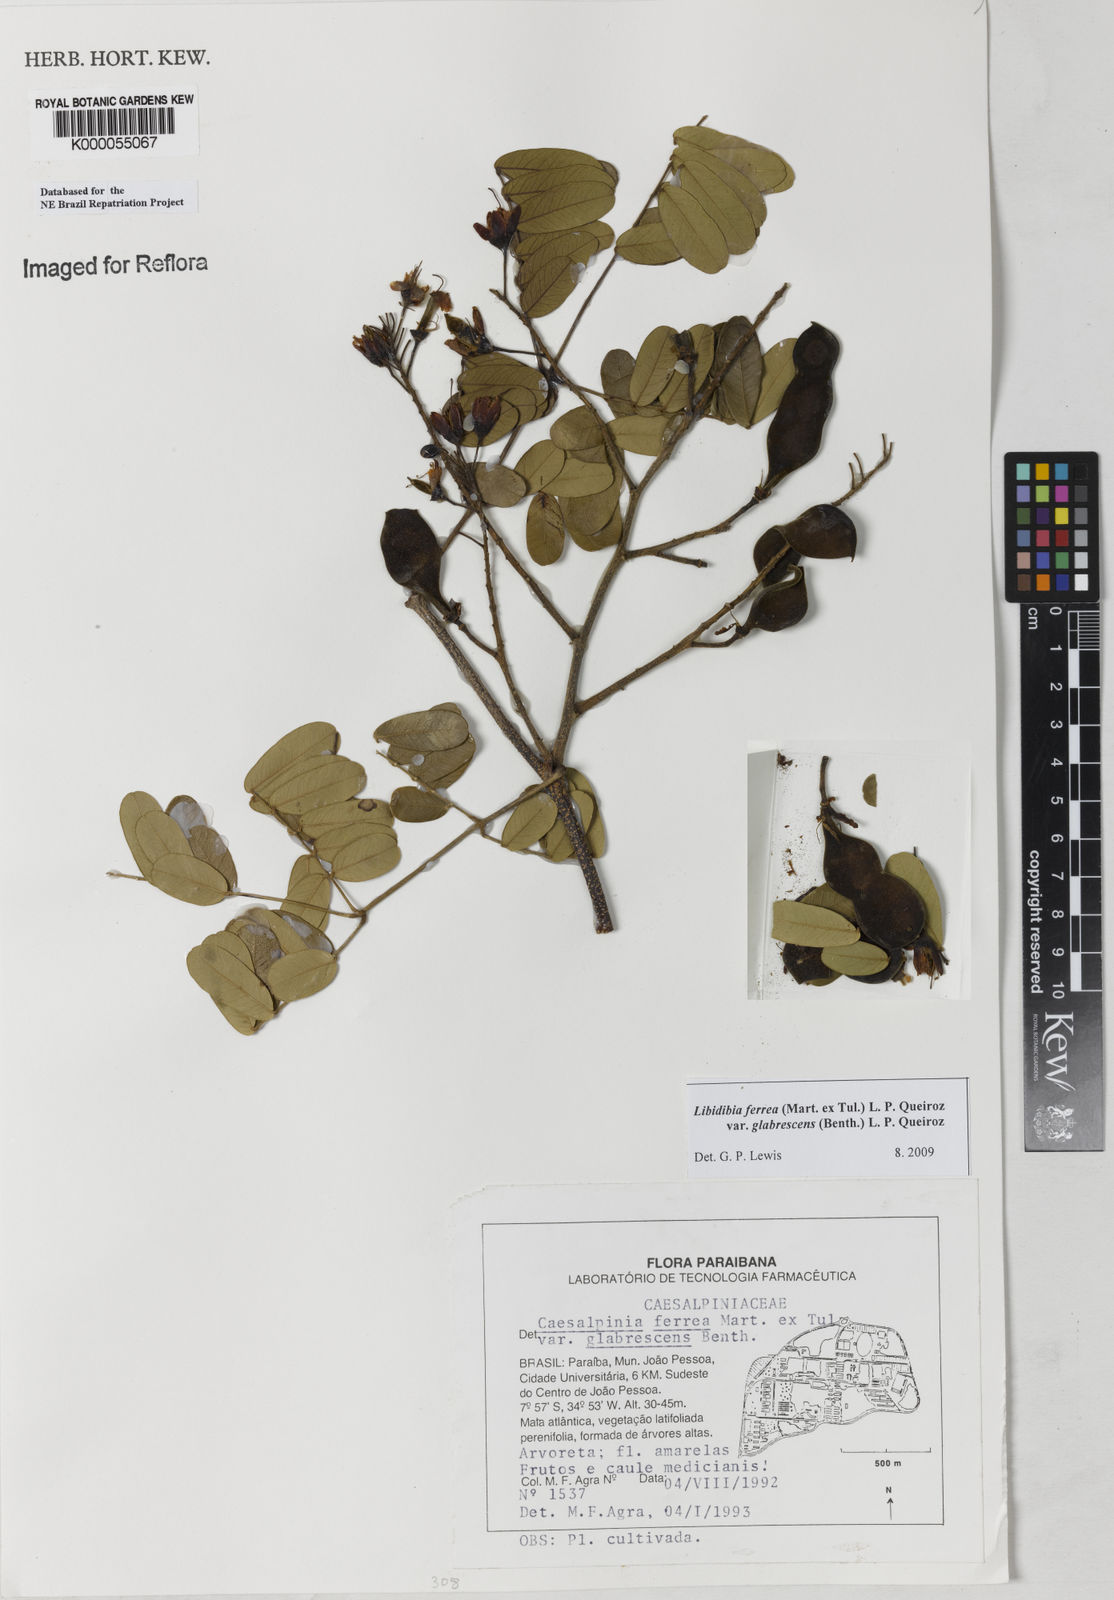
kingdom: Plantae
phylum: Tracheophyta
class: Magnoliopsida
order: Fabales
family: Fabaceae
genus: Libidibia
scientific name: Libidibia ferrea
